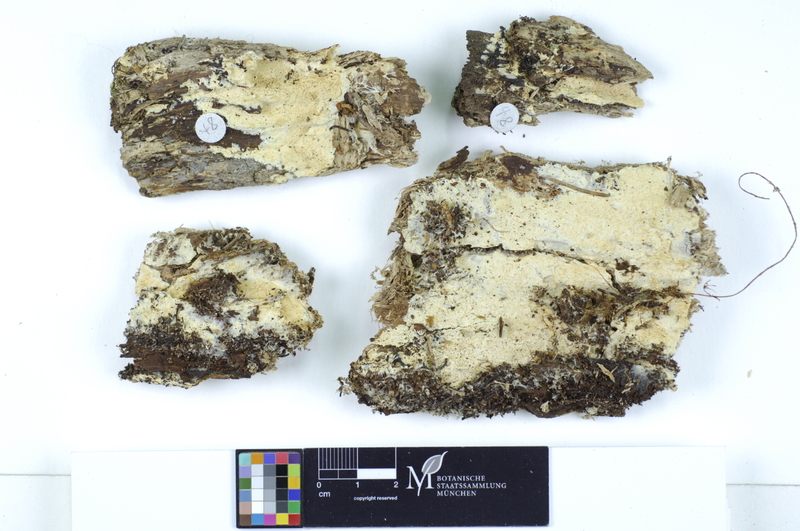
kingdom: Fungi
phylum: Basidiomycota
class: Agaricomycetes
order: Polyporales
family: Meruliaceae
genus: Ceriporiopsis
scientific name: Ceriporiopsis mucida
